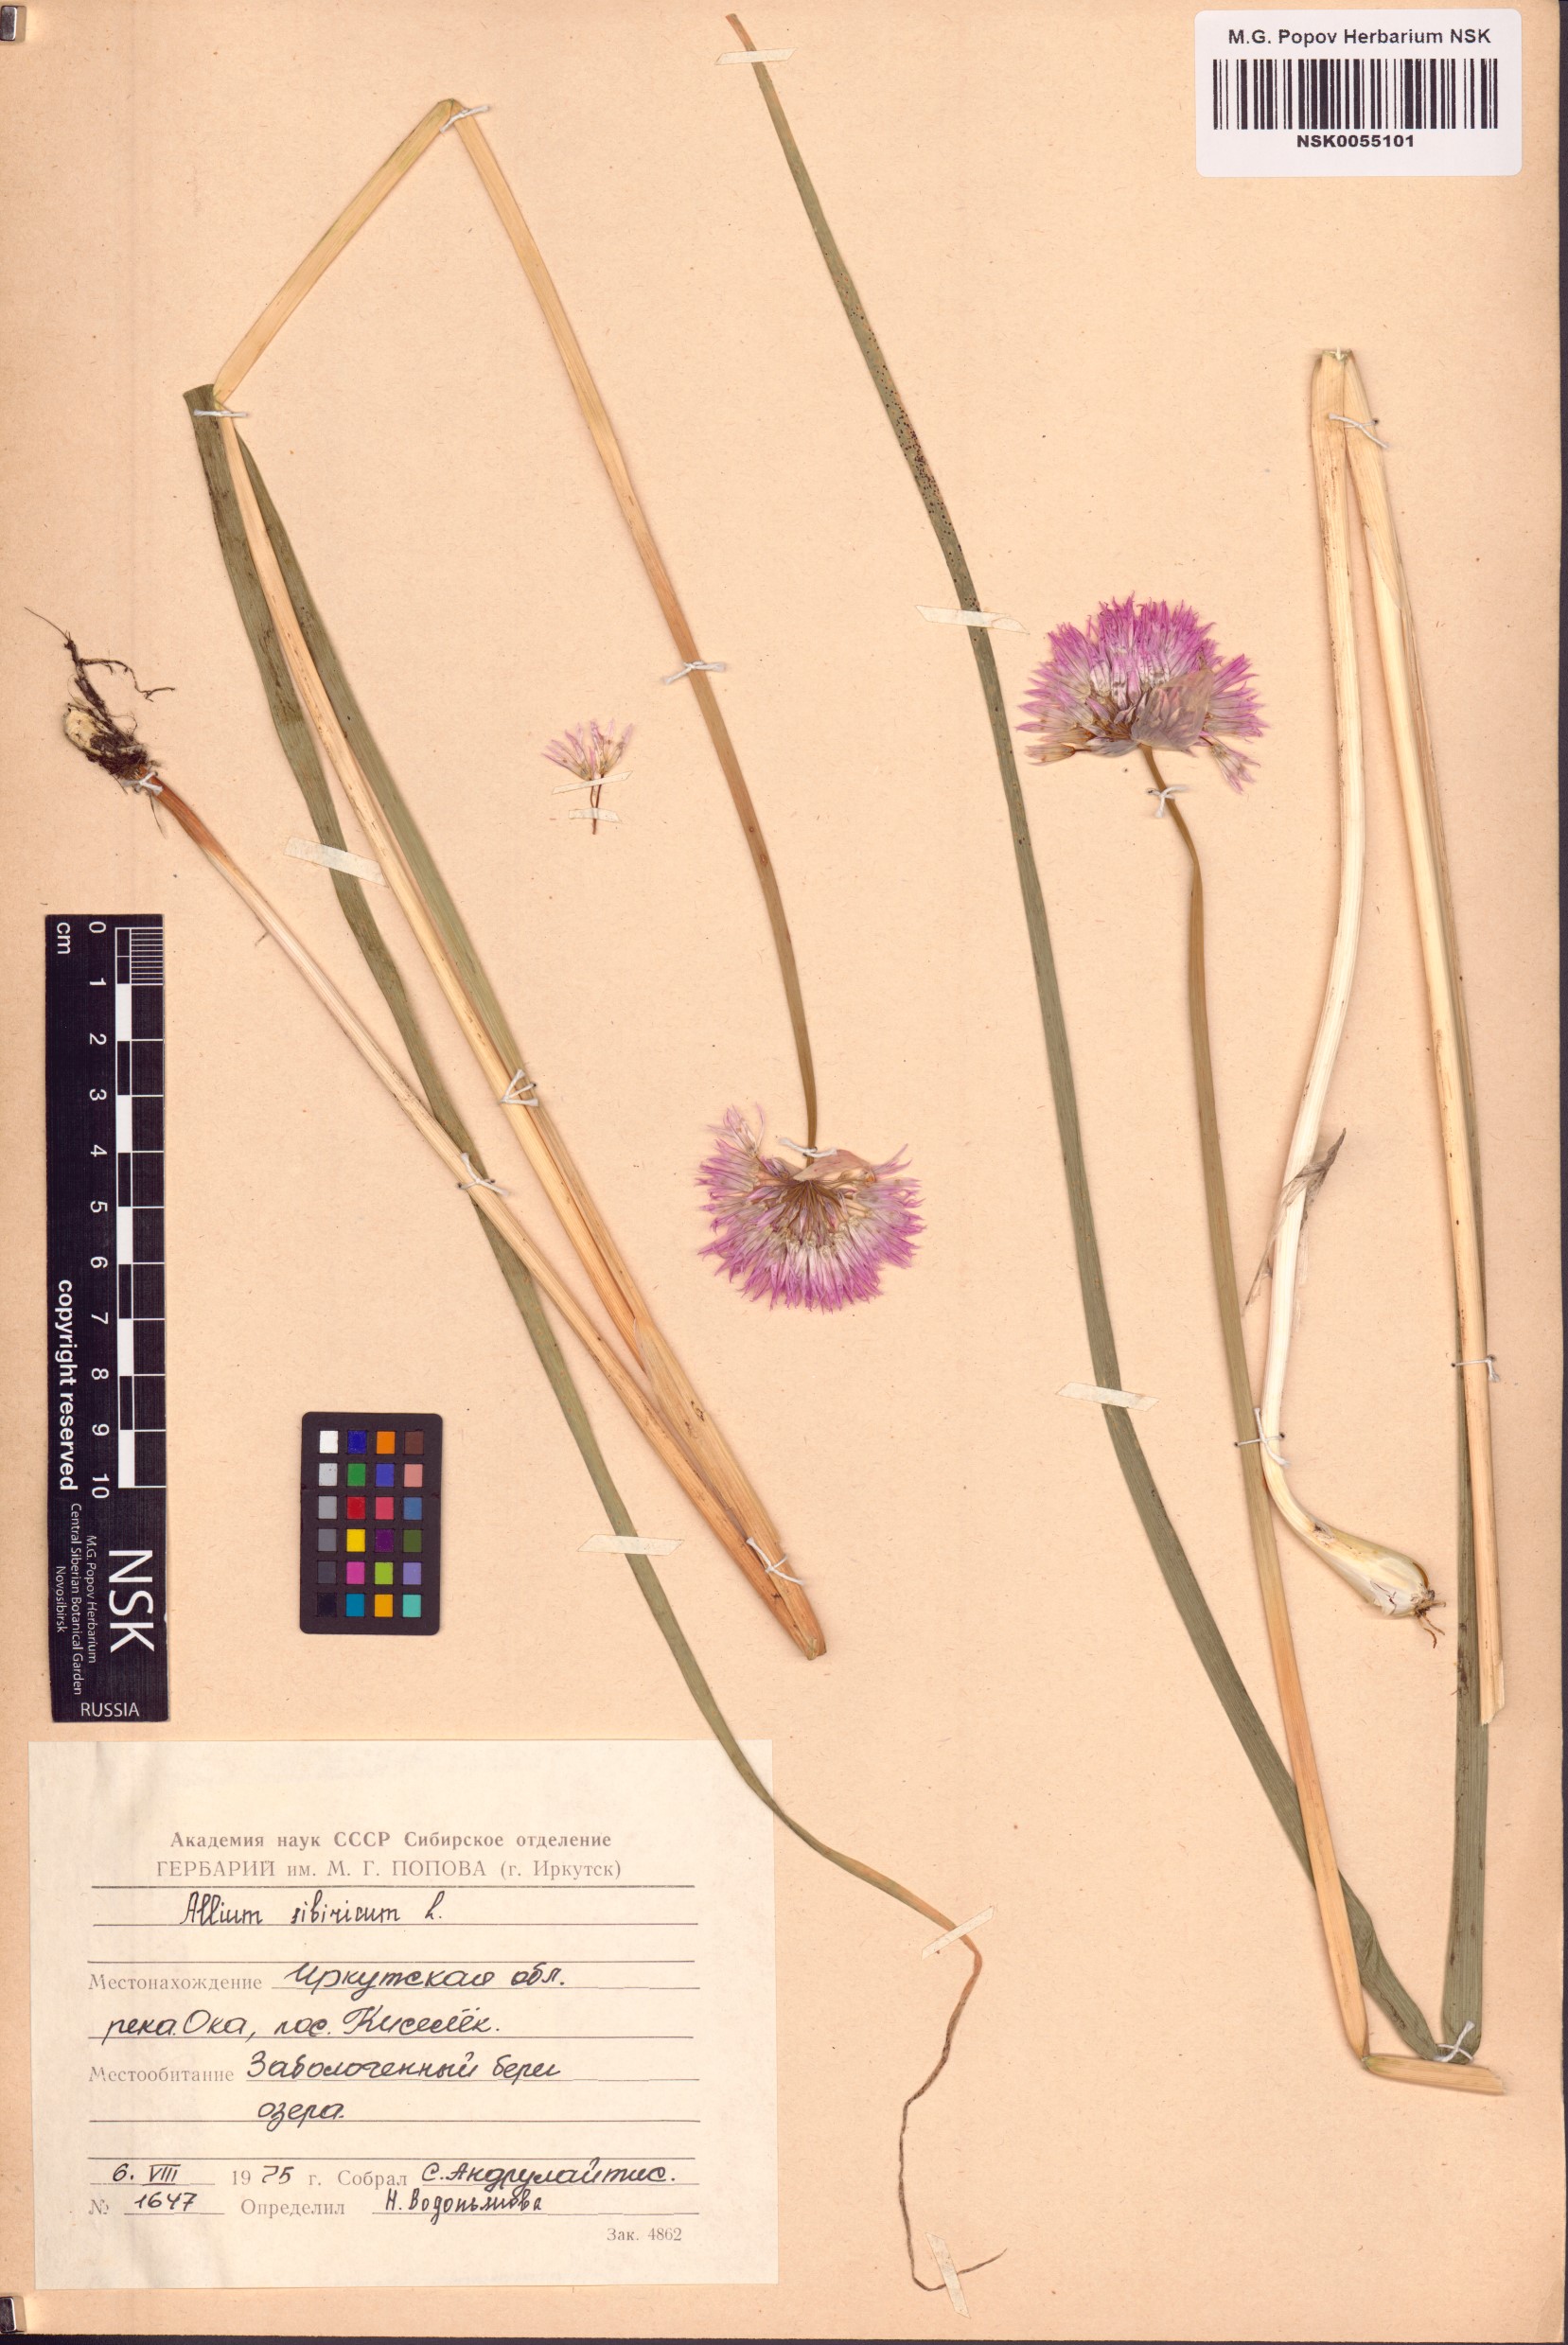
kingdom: Plantae
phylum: Tracheophyta
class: Liliopsida
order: Asparagales
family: Amaryllidaceae
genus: Allium
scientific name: Allium schoenoprasum
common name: Chives
